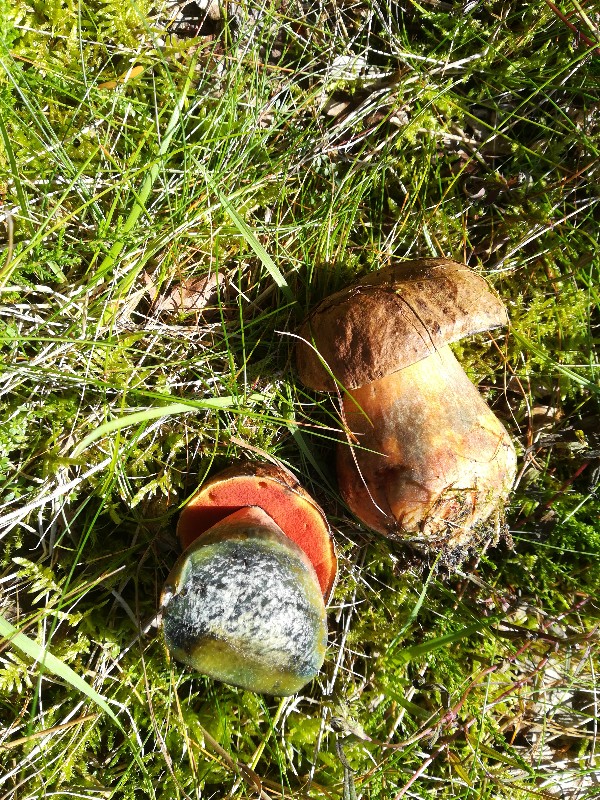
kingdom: Fungi
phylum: Basidiomycota
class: Agaricomycetes
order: Boletales
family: Boletaceae
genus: Neoboletus
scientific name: Neoboletus erythropus
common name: punktstokket indigorørhat
